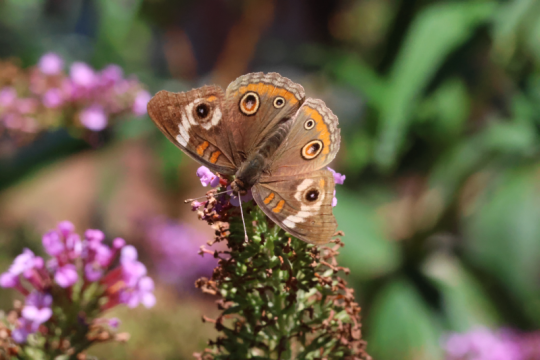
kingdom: Animalia
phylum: Arthropoda
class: Insecta
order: Lepidoptera
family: Nymphalidae
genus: Junonia
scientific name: Junonia coenia
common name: Common Buckeye
